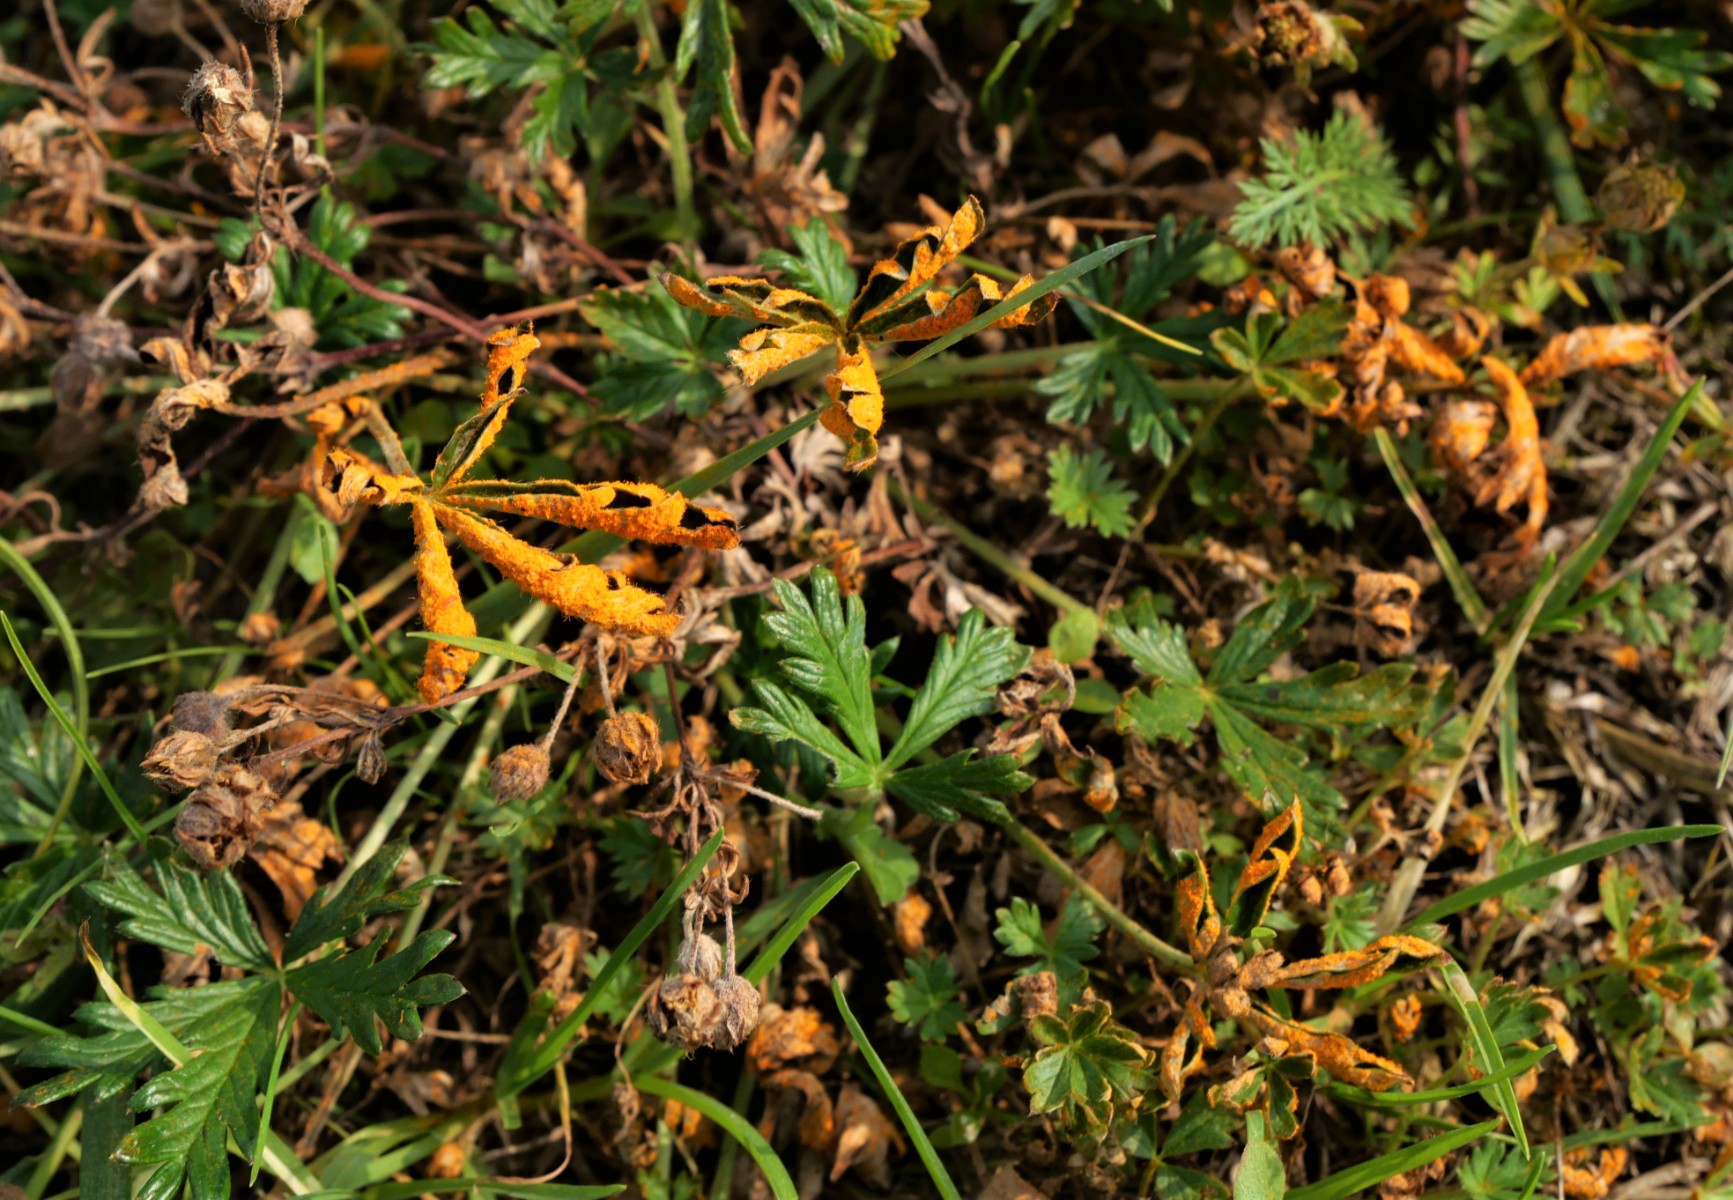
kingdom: Fungi
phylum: Basidiomycota
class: Pucciniomycetes
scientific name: Pucciniomycetes
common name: rustsvampeklassen
